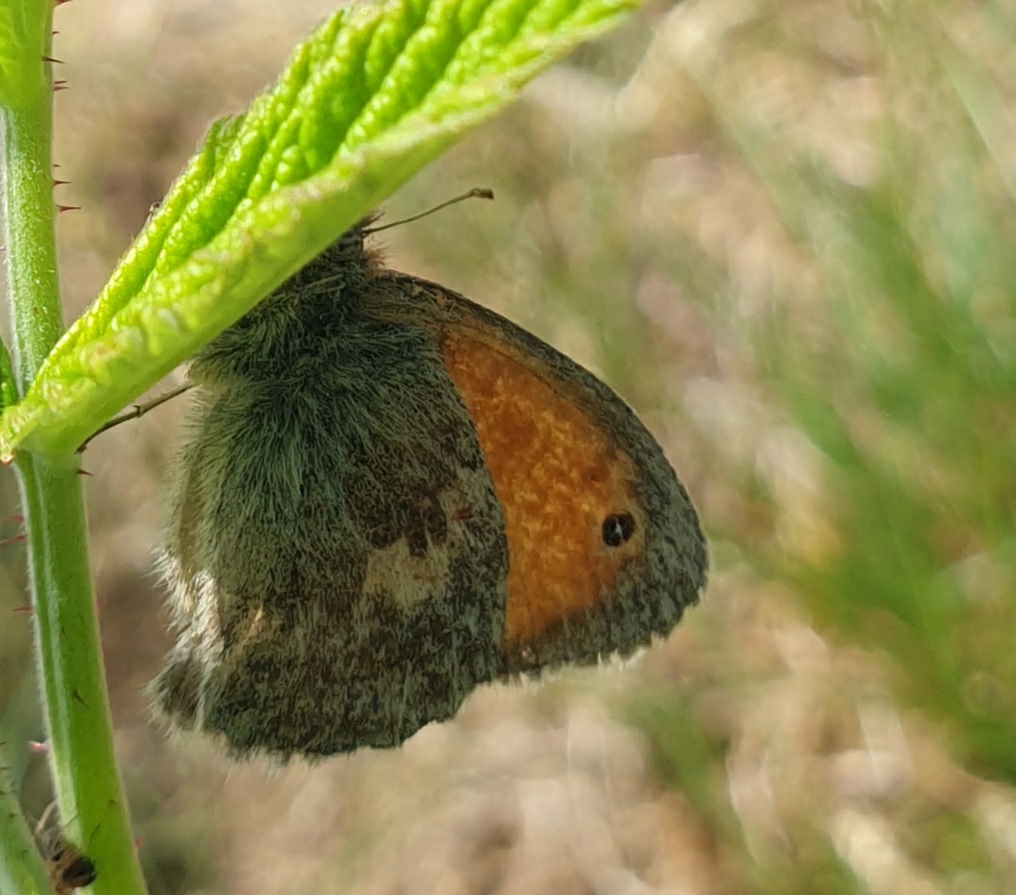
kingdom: Animalia
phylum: Arthropoda
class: Insecta
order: Lepidoptera
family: Nymphalidae
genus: Coenonympha
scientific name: Coenonympha pamphilus
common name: Okkergul randøje
